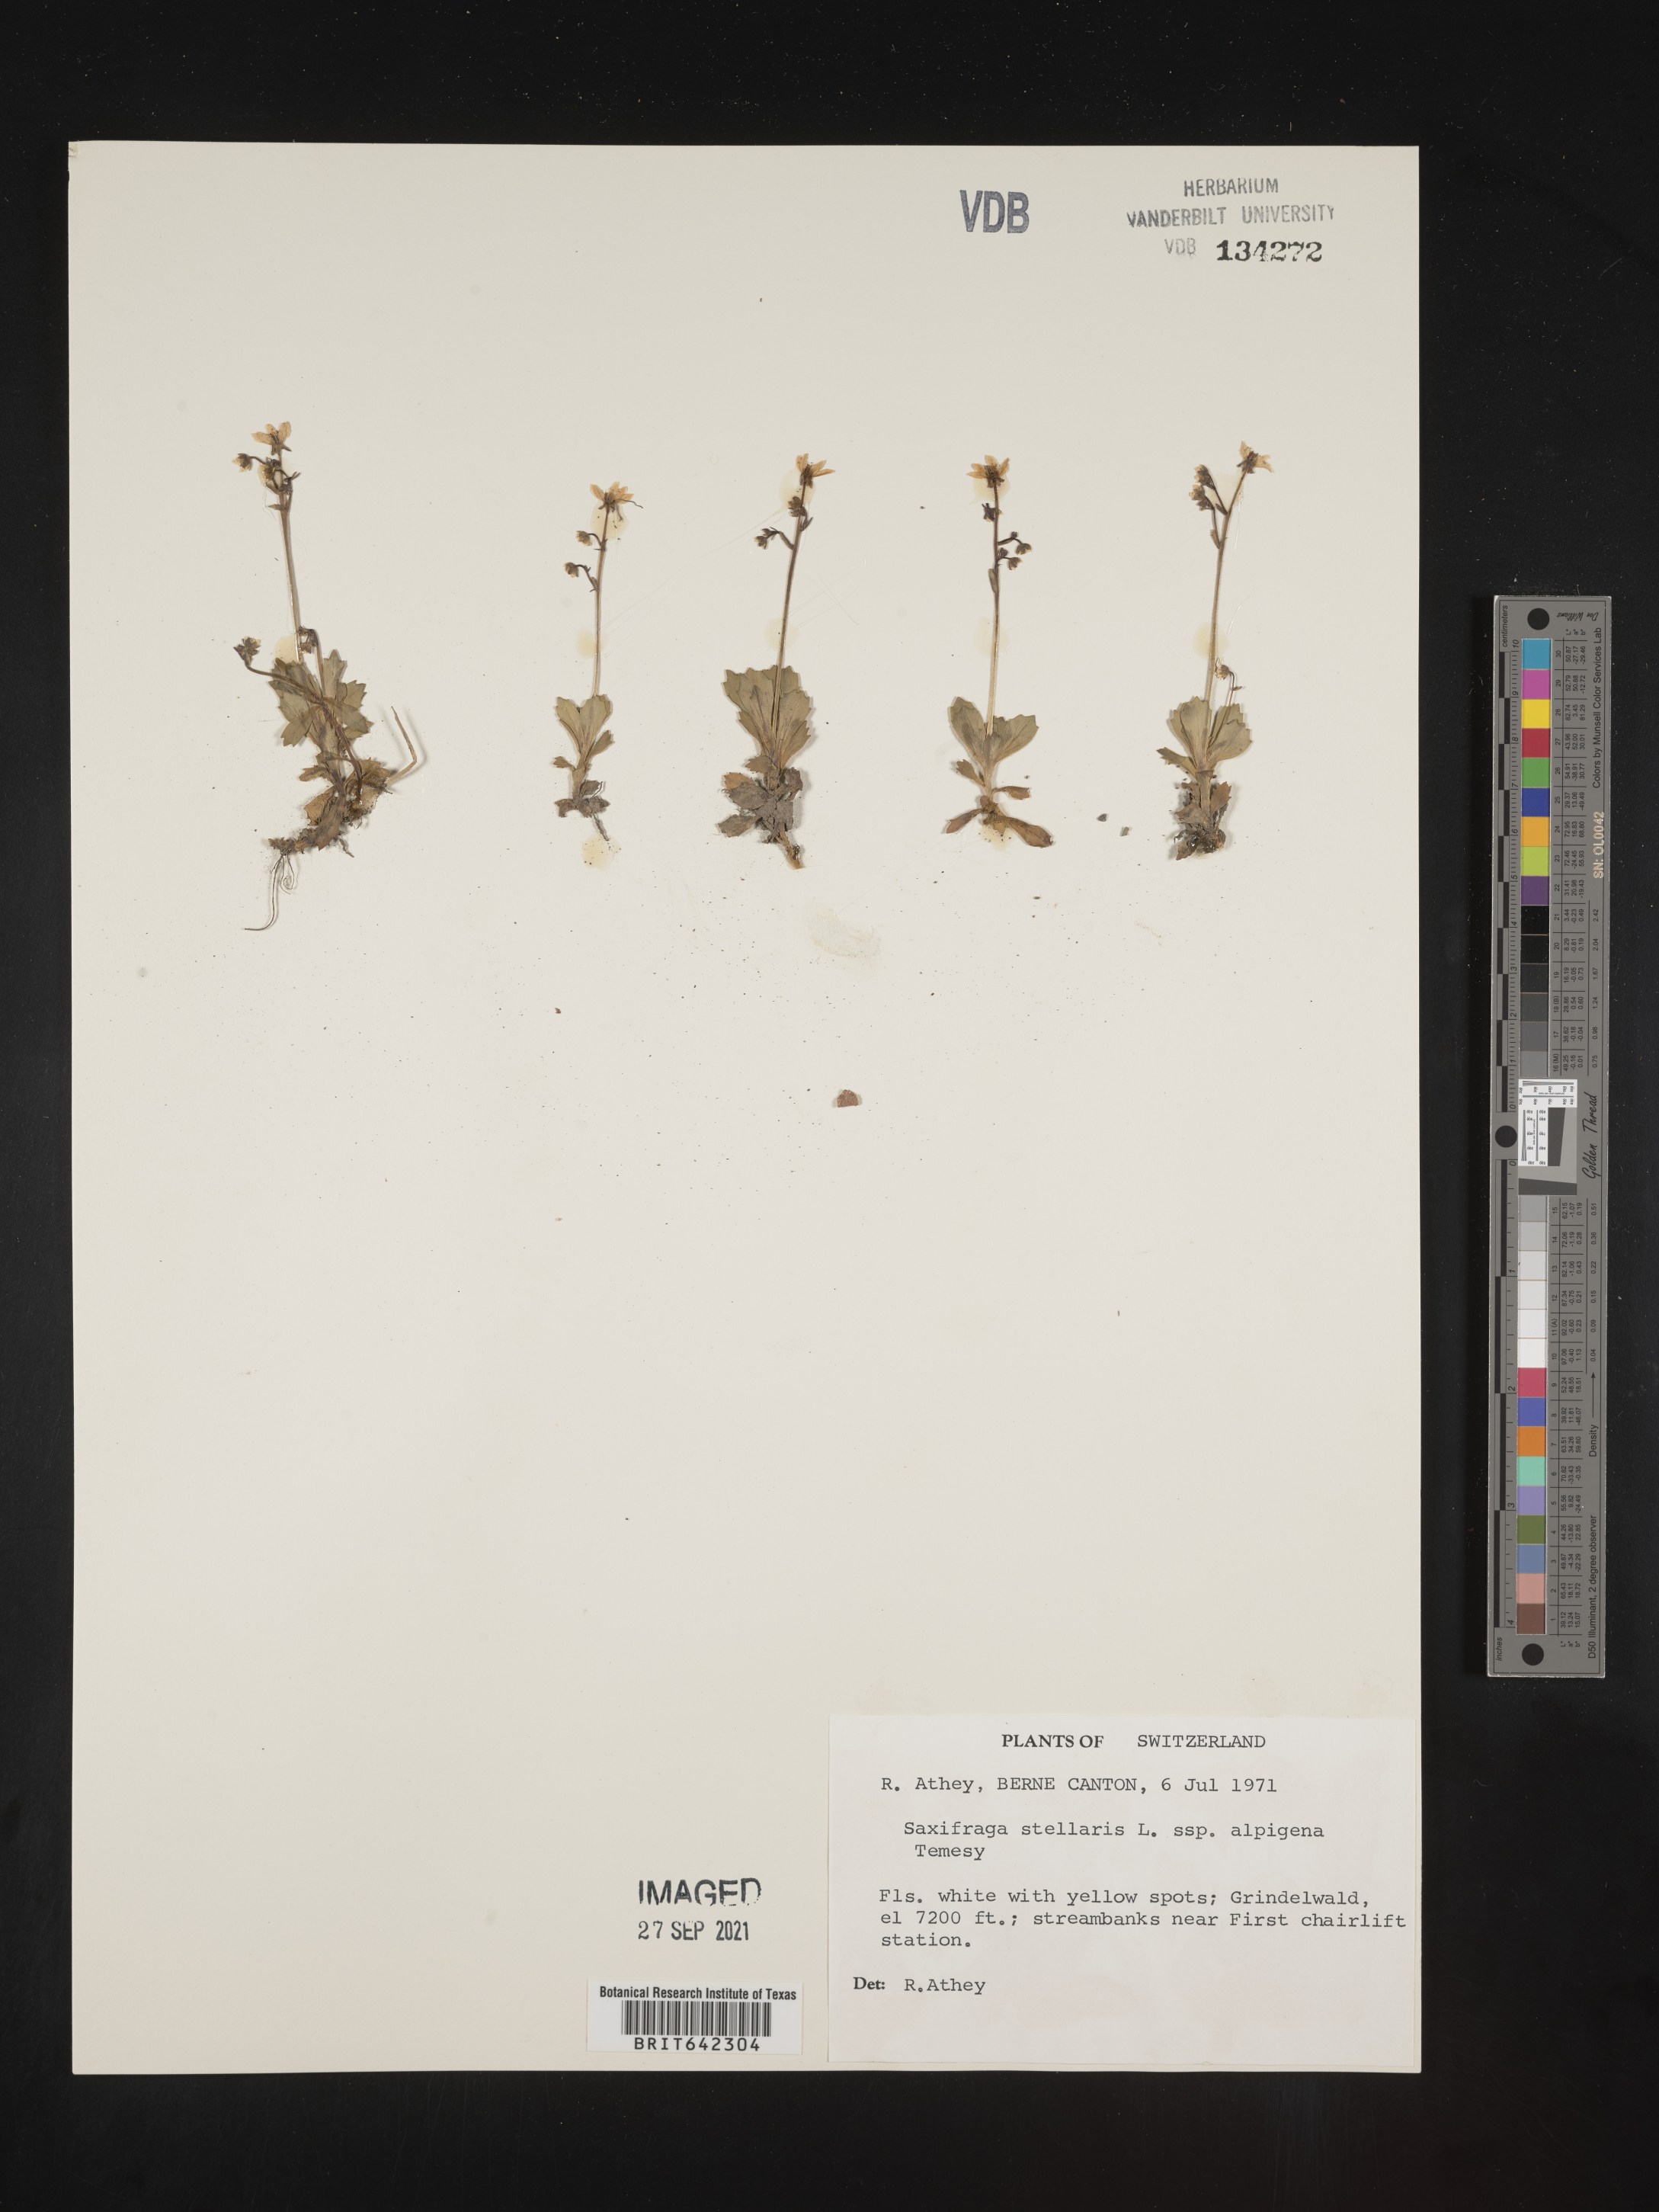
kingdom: Plantae
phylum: Tracheophyta
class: Magnoliopsida
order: Saxifragales
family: Saxifragaceae
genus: Saxifraga
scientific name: Saxifraga
